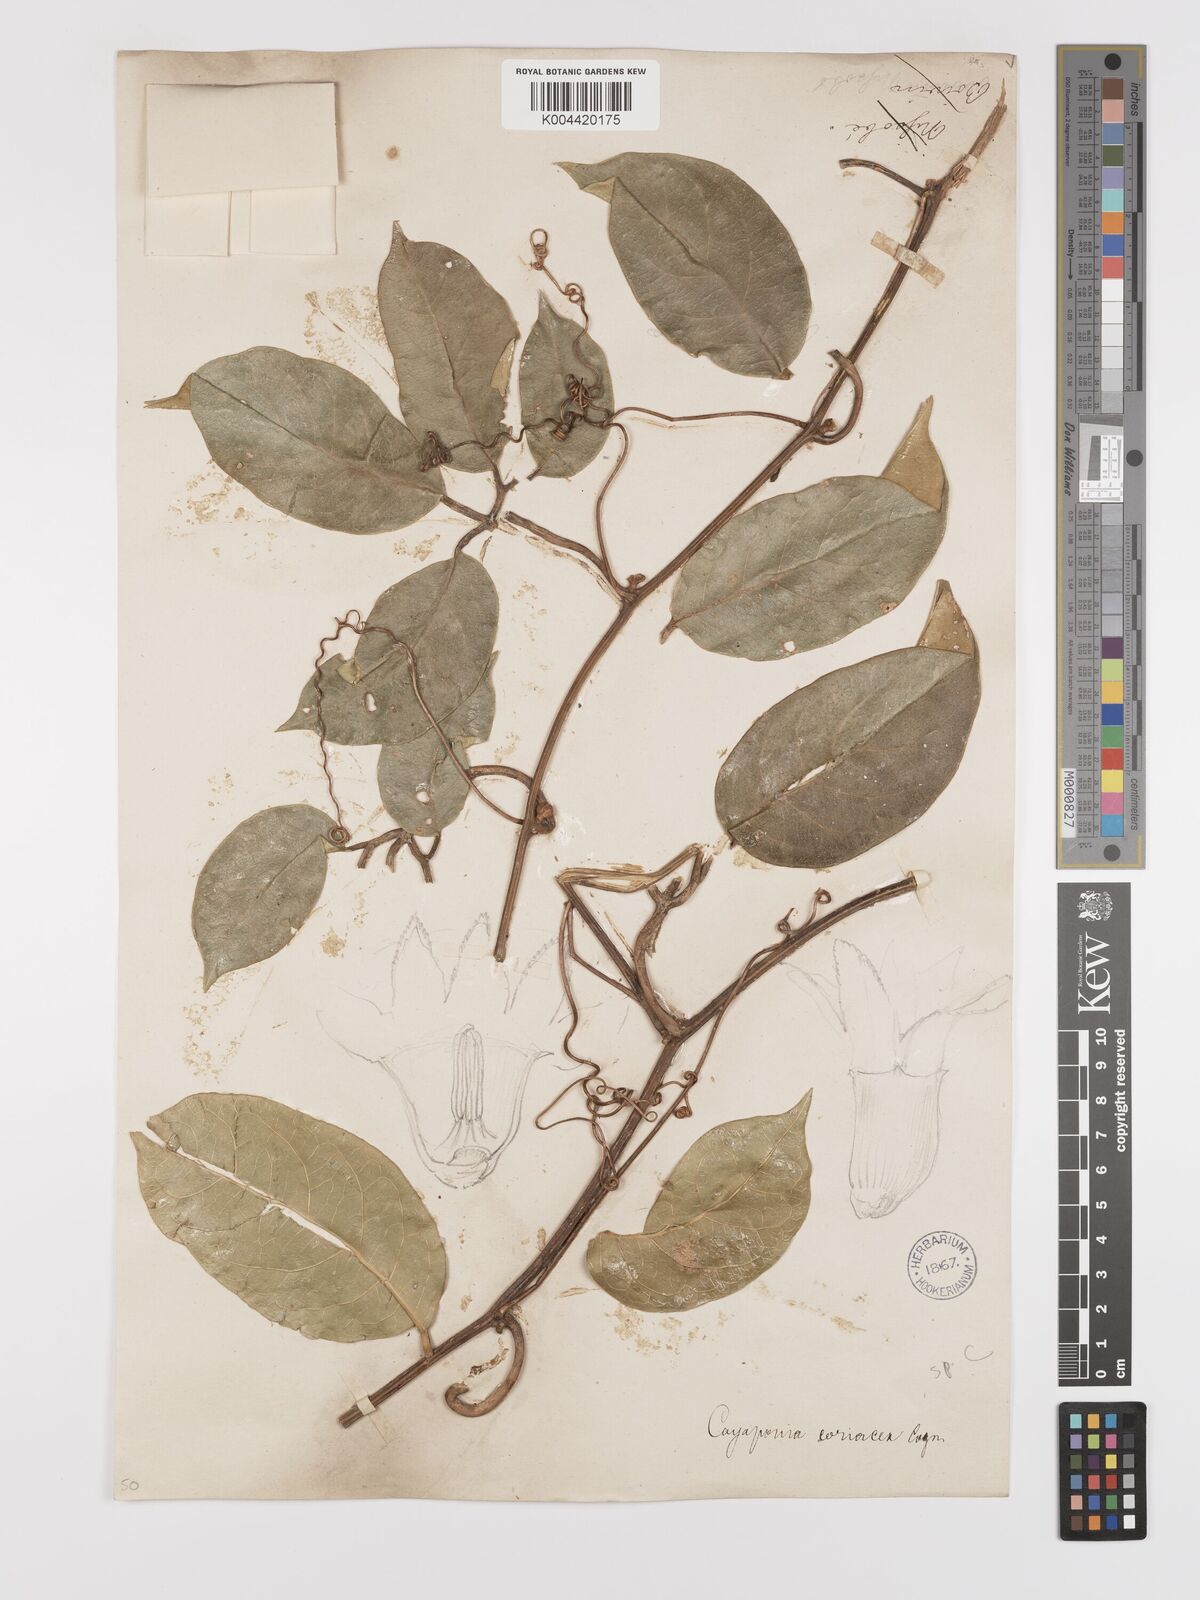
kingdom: Plantae
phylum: Tracheophyta
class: Magnoliopsida
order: Cucurbitales
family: Cucurbitaceae
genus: Cayaponia
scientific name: Cayaponia coriacea
